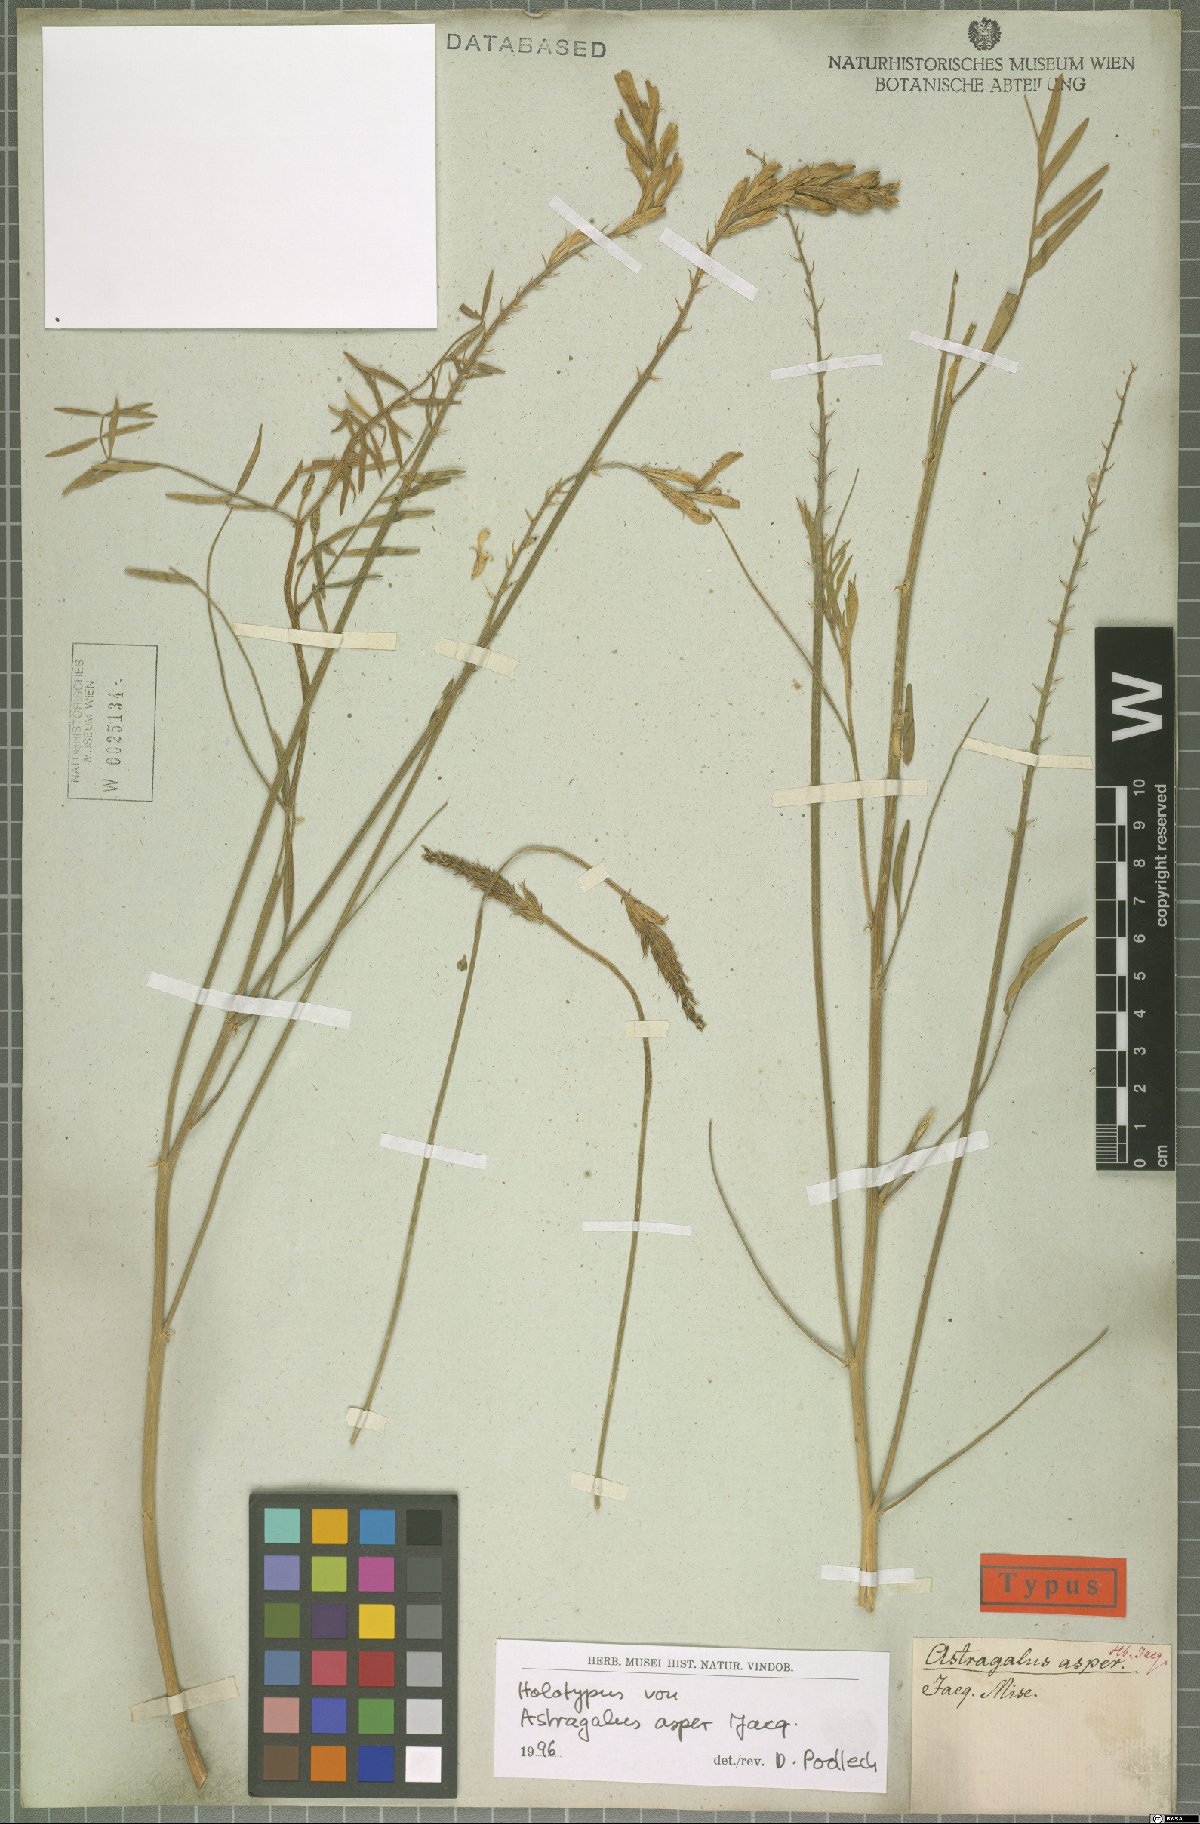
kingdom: Plantae
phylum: Tracheophyta
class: Magnoliopsida
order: Fabales
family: Fabaceae
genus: Astragalus
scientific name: Astragalus asper
